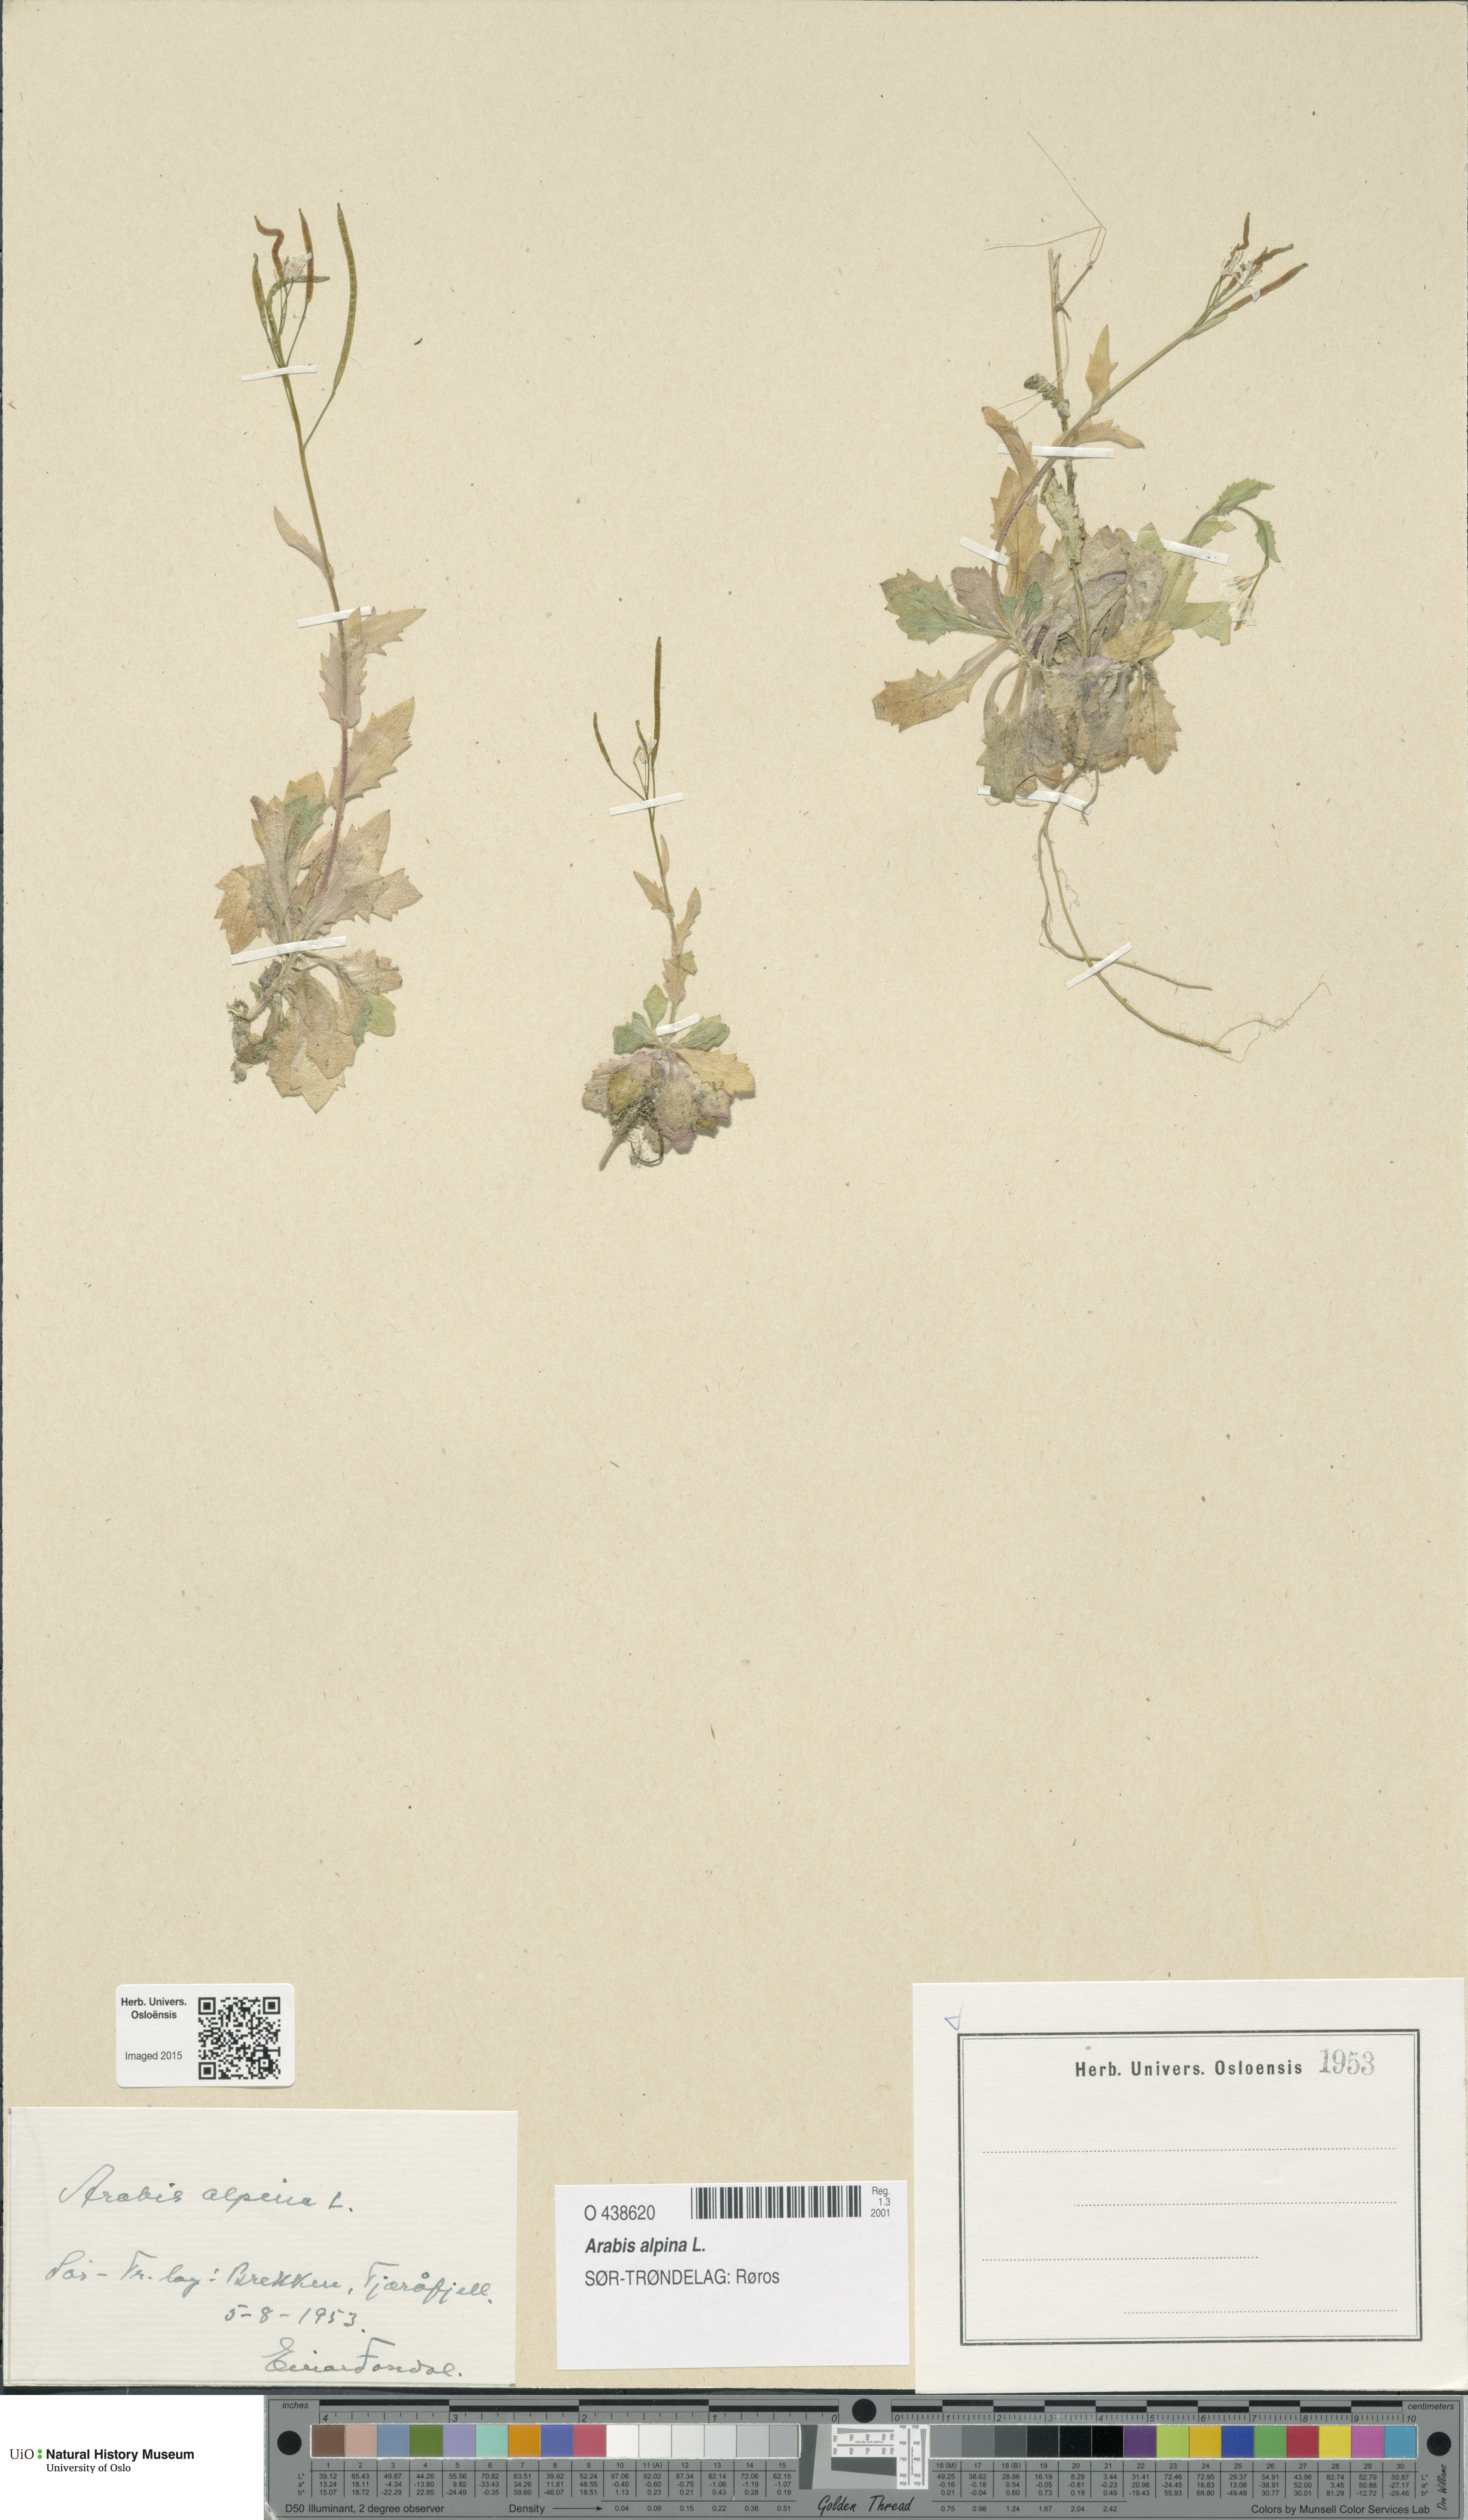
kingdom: Plantae
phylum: Tracheophyta
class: Magnoliopsida
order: Brassicales
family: Brassicaceae
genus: Arabis
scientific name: Arabis alpina
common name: Alpine rock-cress
